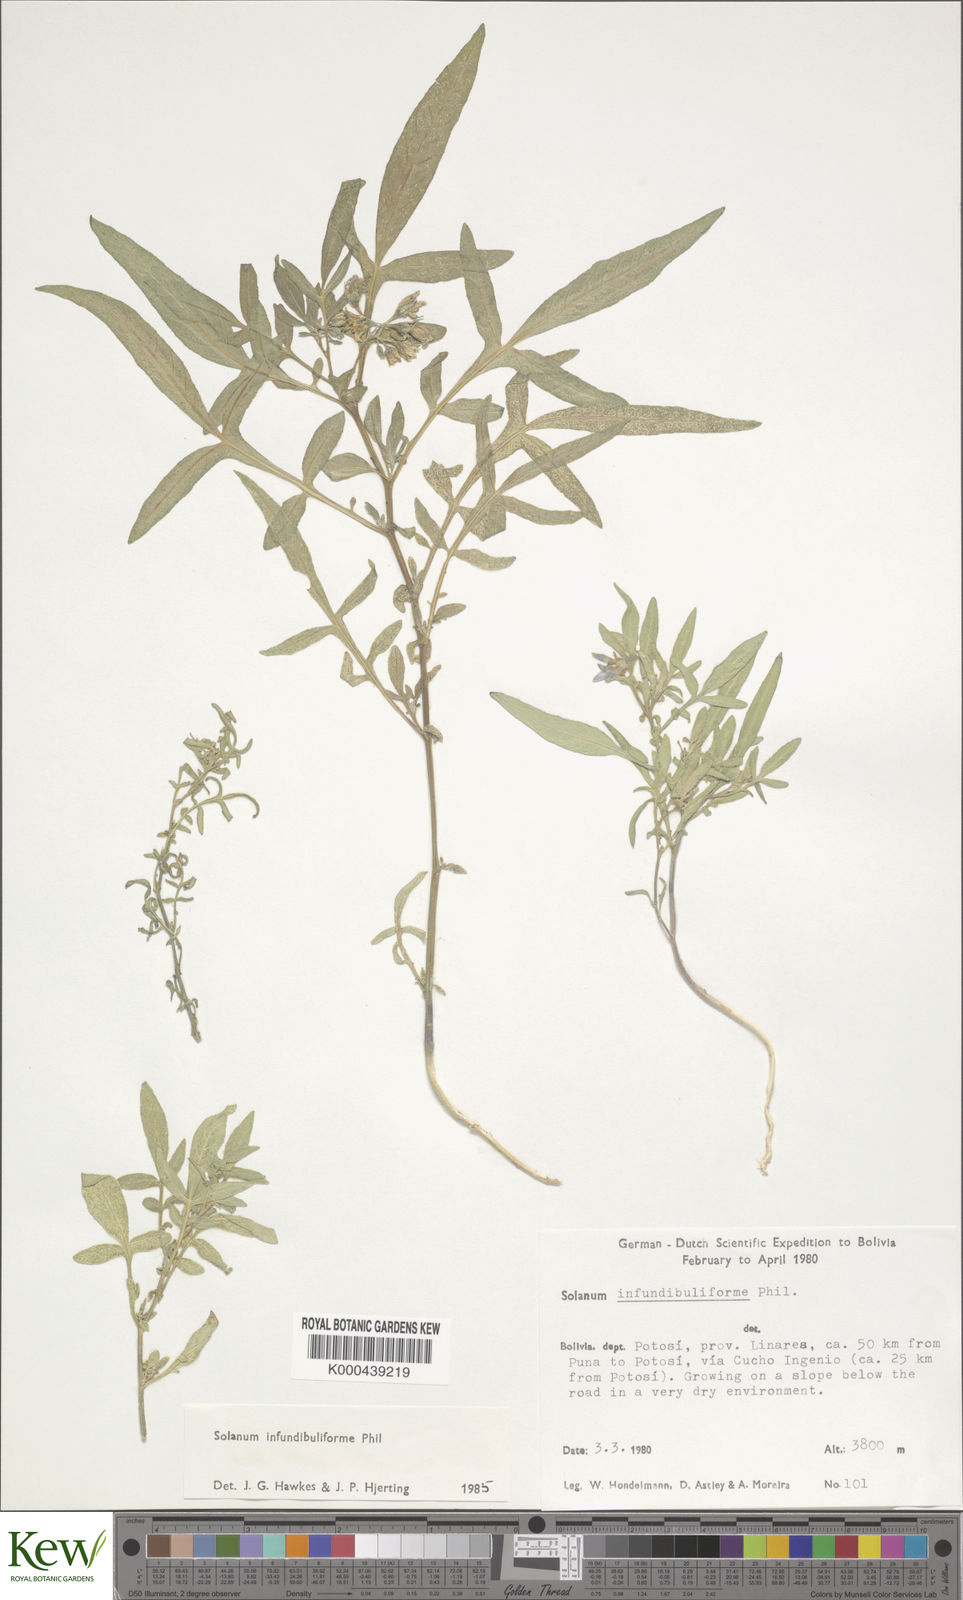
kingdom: Plantae
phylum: Tracheophyta
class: Magnoliopsida
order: Solanales
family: Solanaceae
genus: Solanum
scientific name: Solanum infundibuliforme
